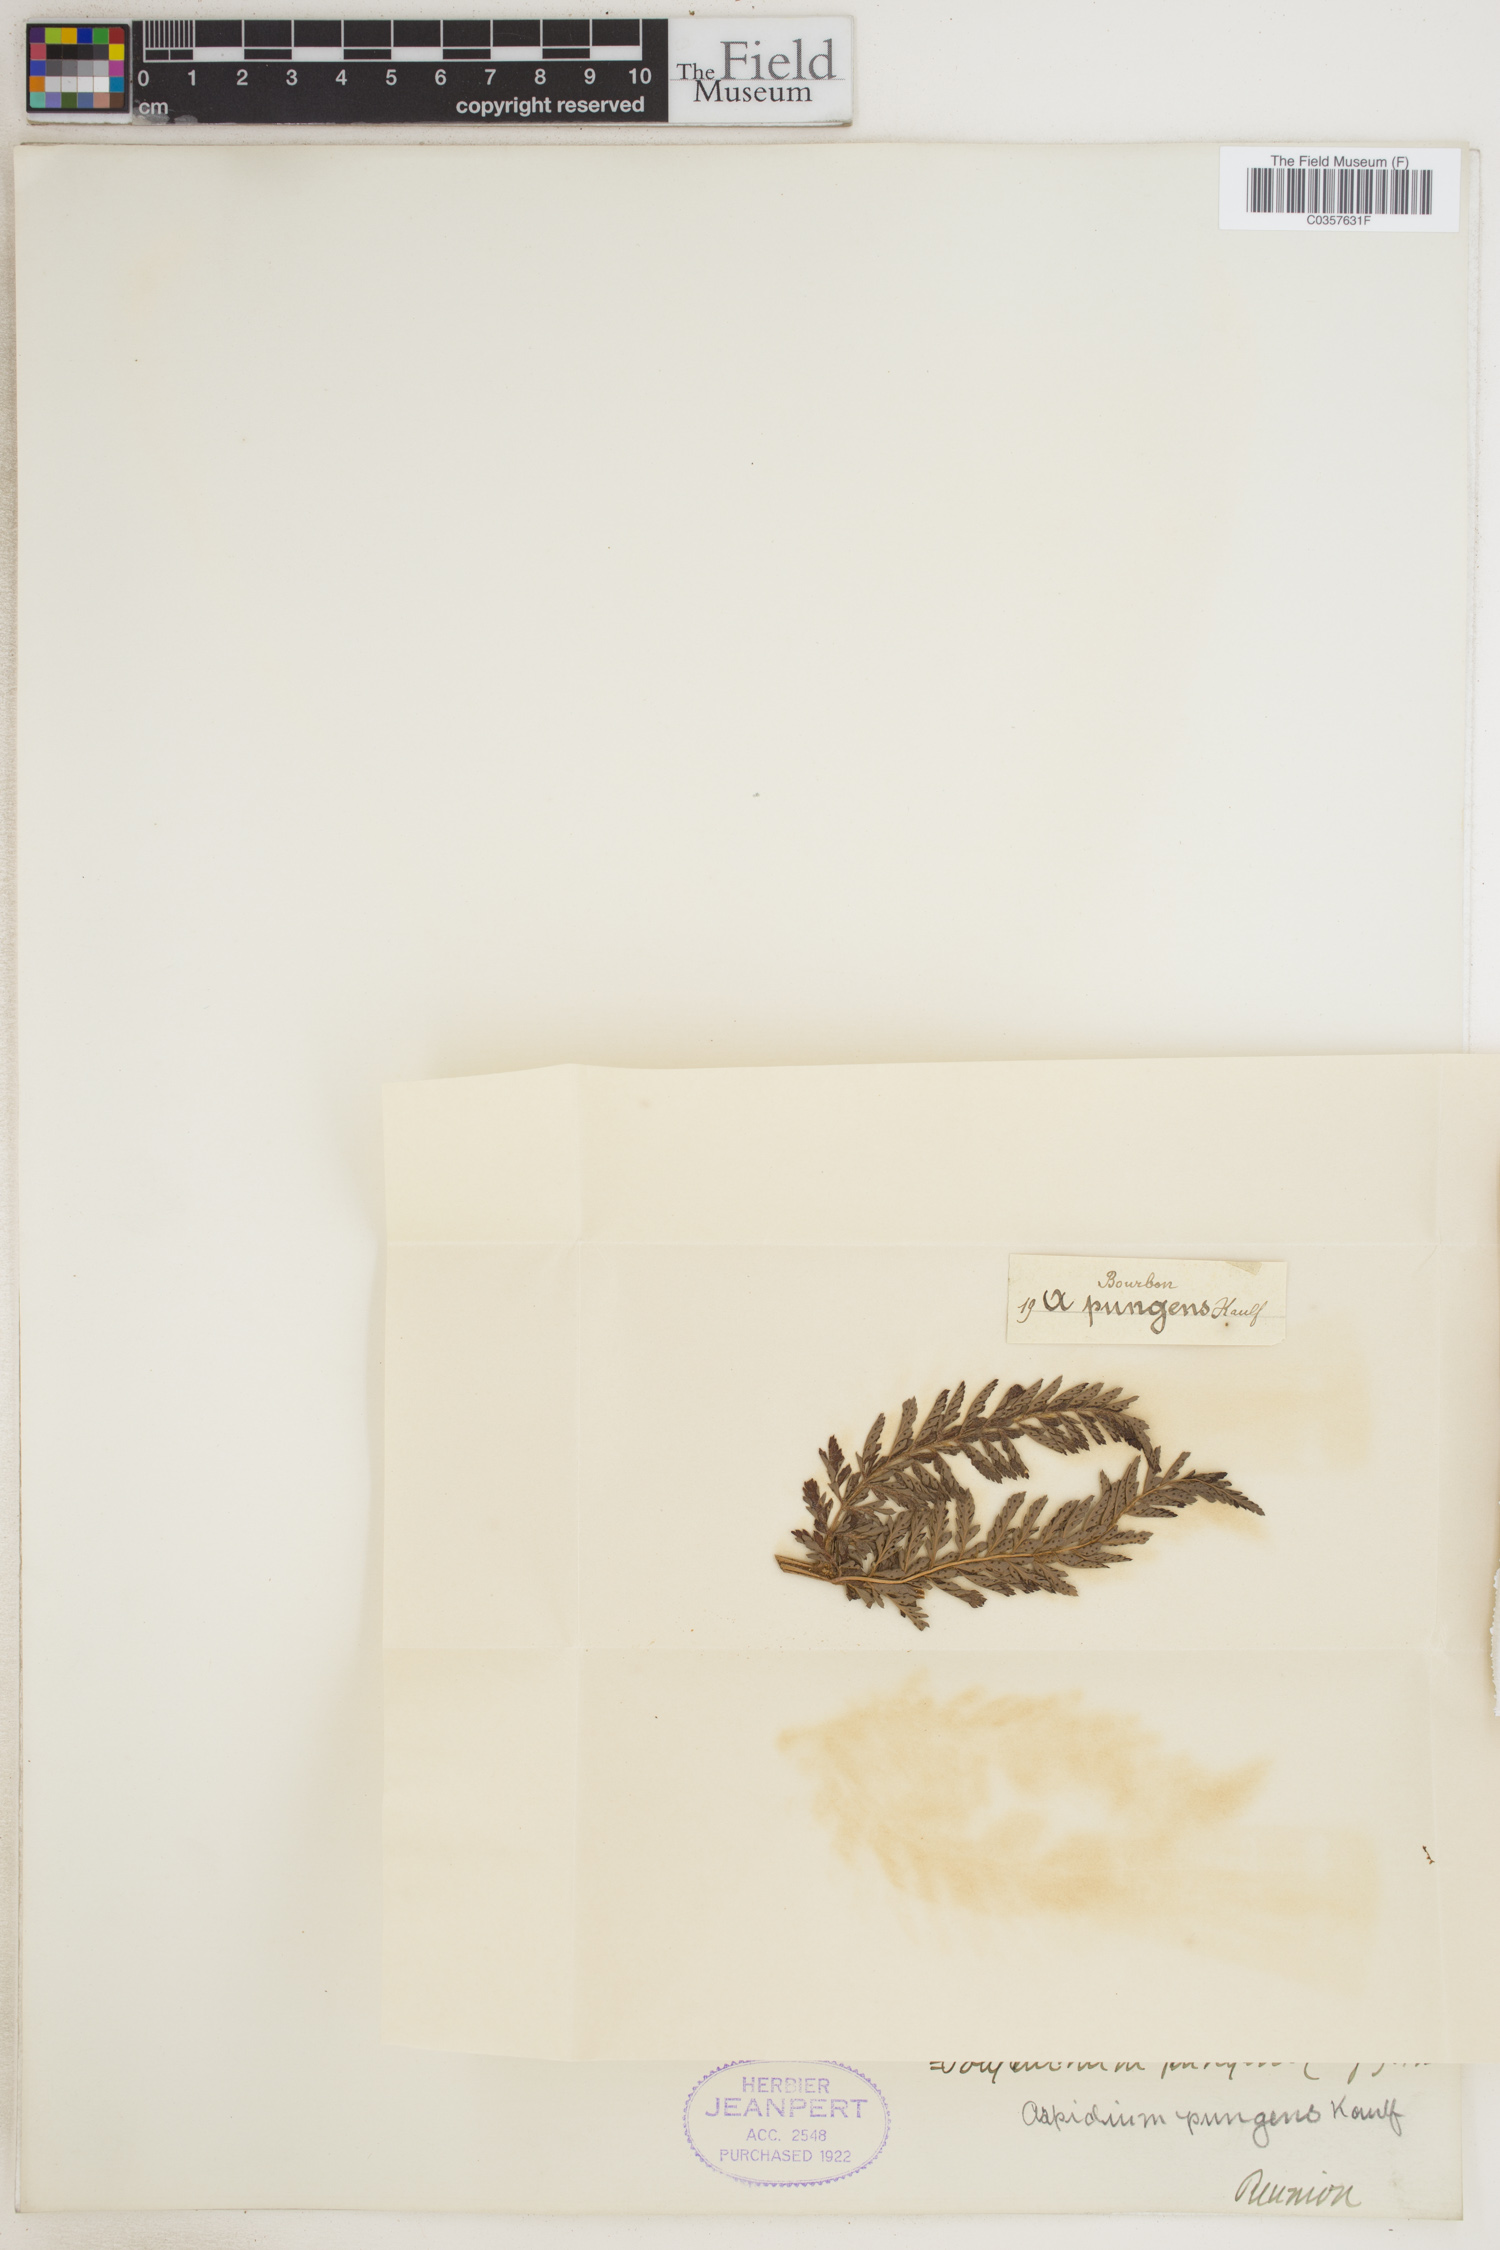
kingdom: Plantae
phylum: Tracheophyta
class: Polypodiopsida
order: Polypodiales
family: Dryopteridaceae
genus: Polystichum
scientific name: Polystichum pungens
